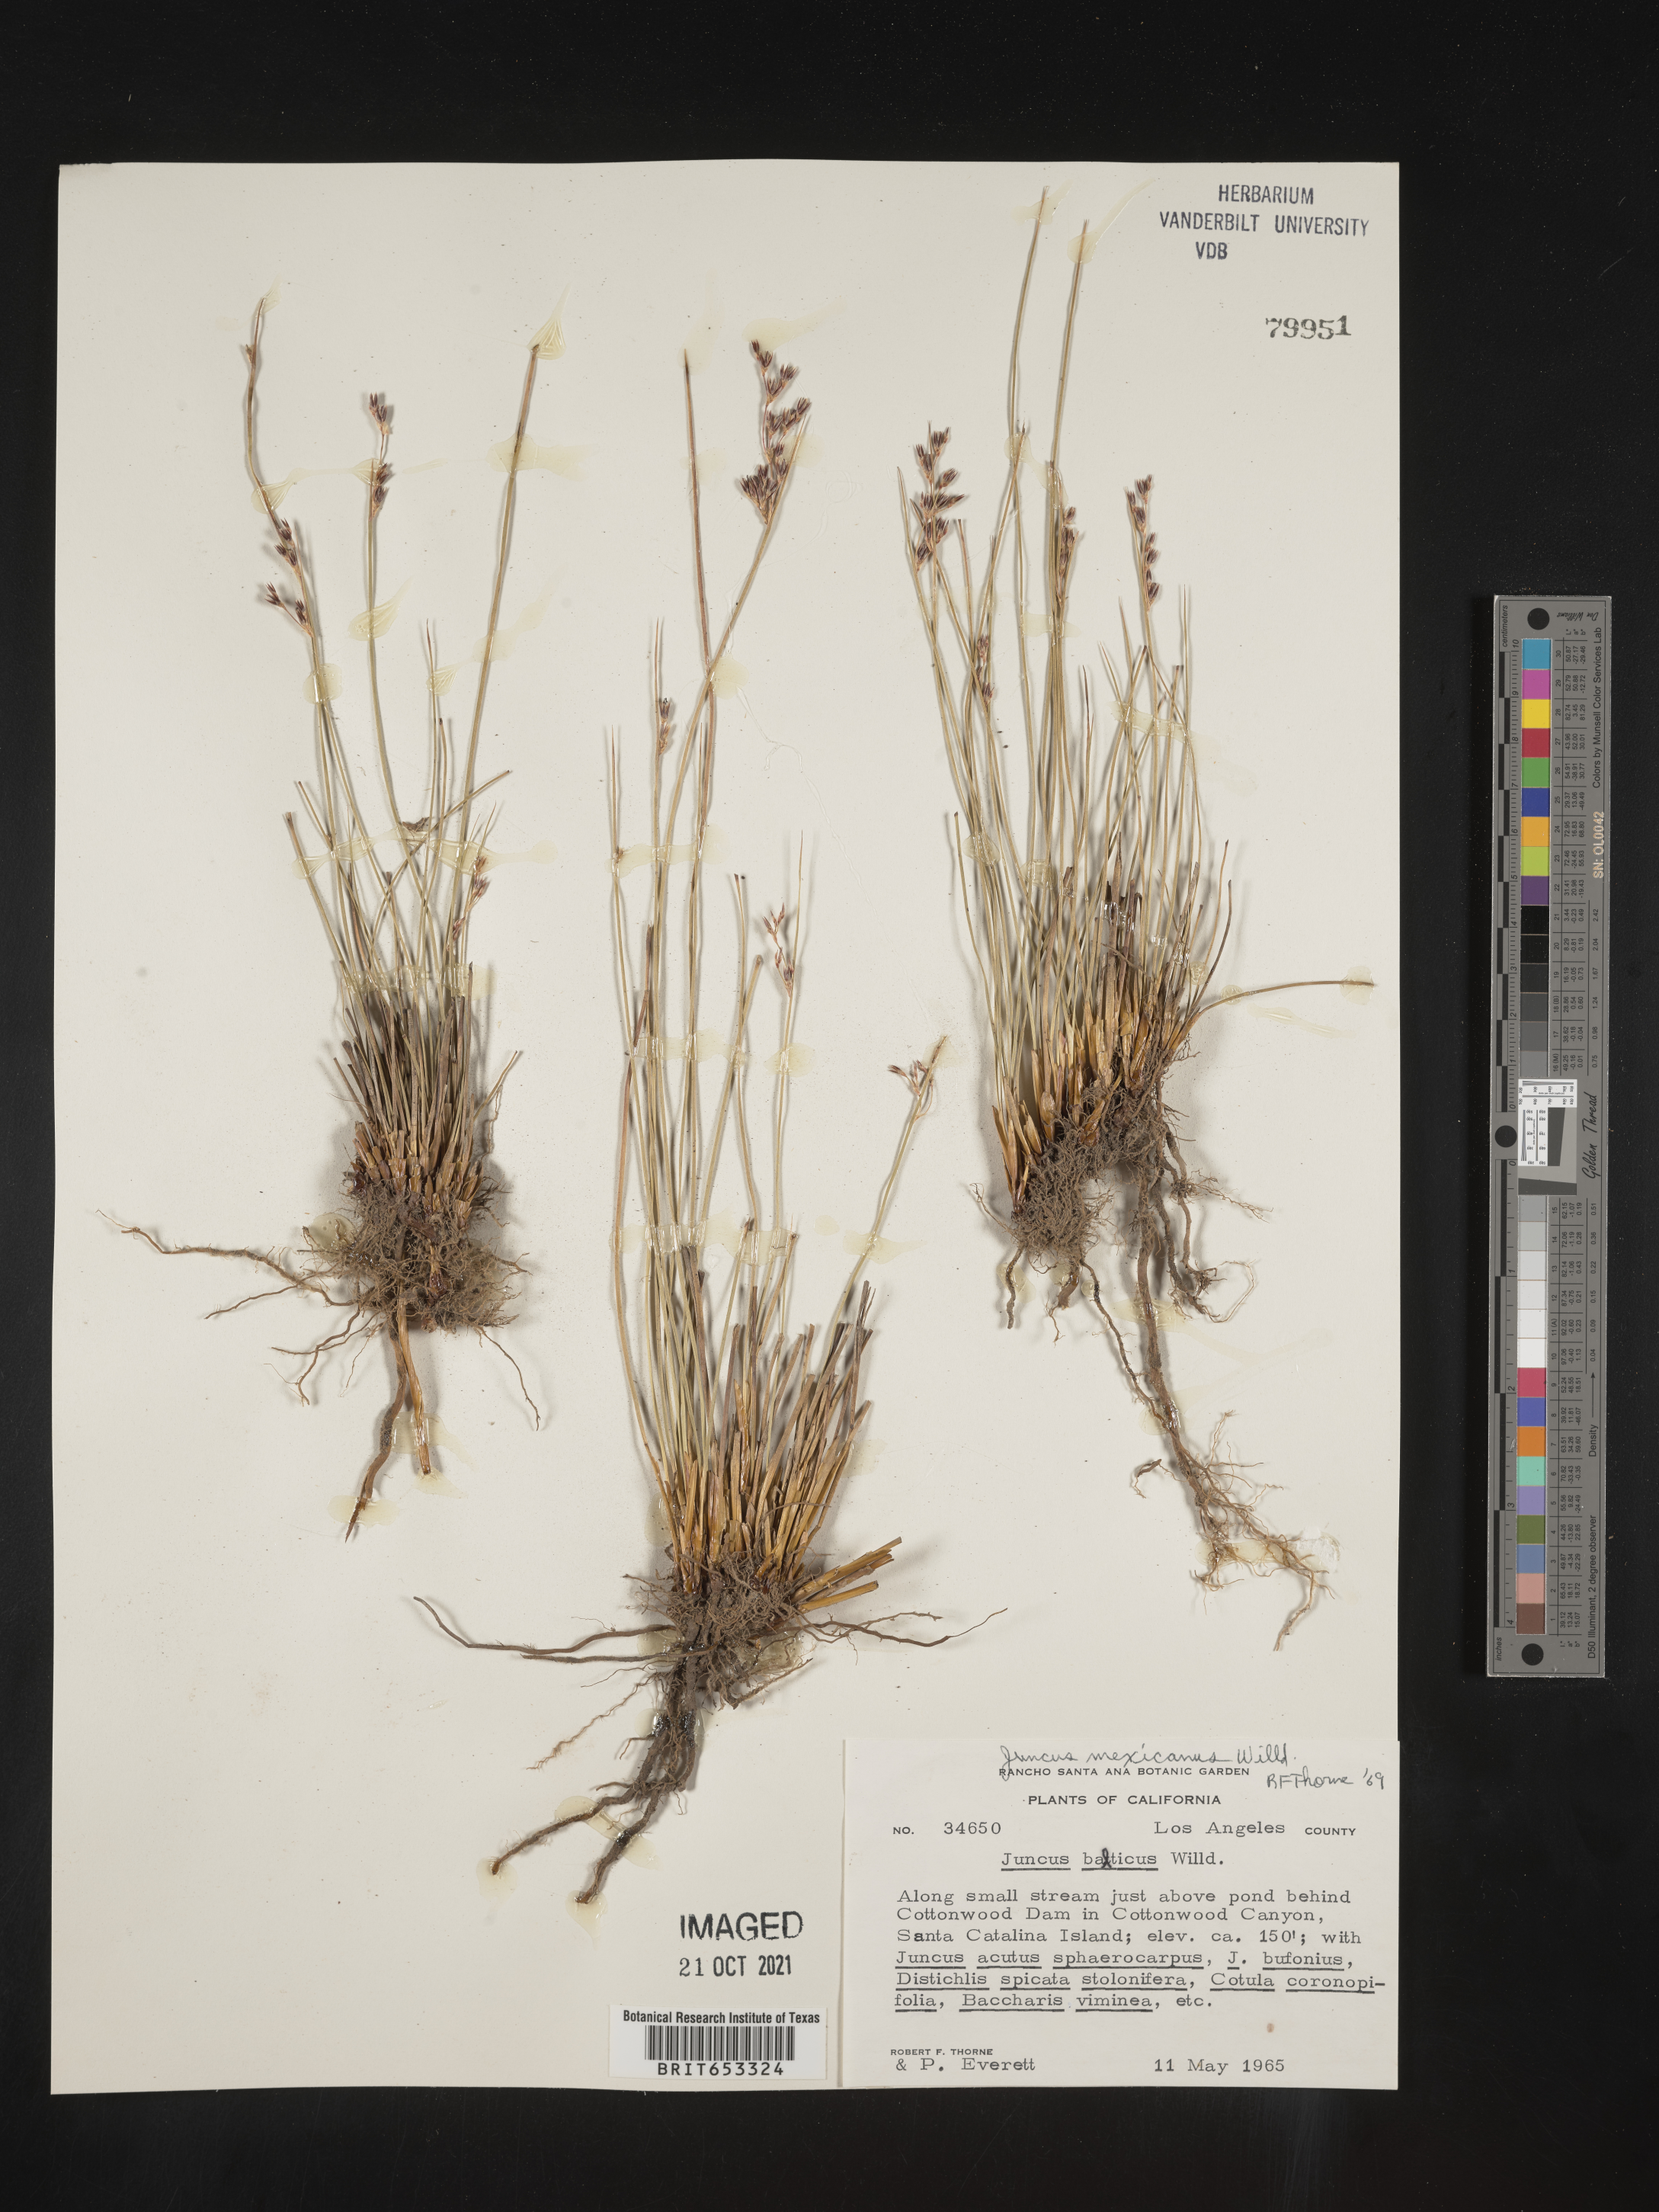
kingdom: Plantae
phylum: Tracheophyta
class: Liliopsida
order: Poales
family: Juncaceae
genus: Juncus
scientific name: Juncus balticus
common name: Baltic rush
